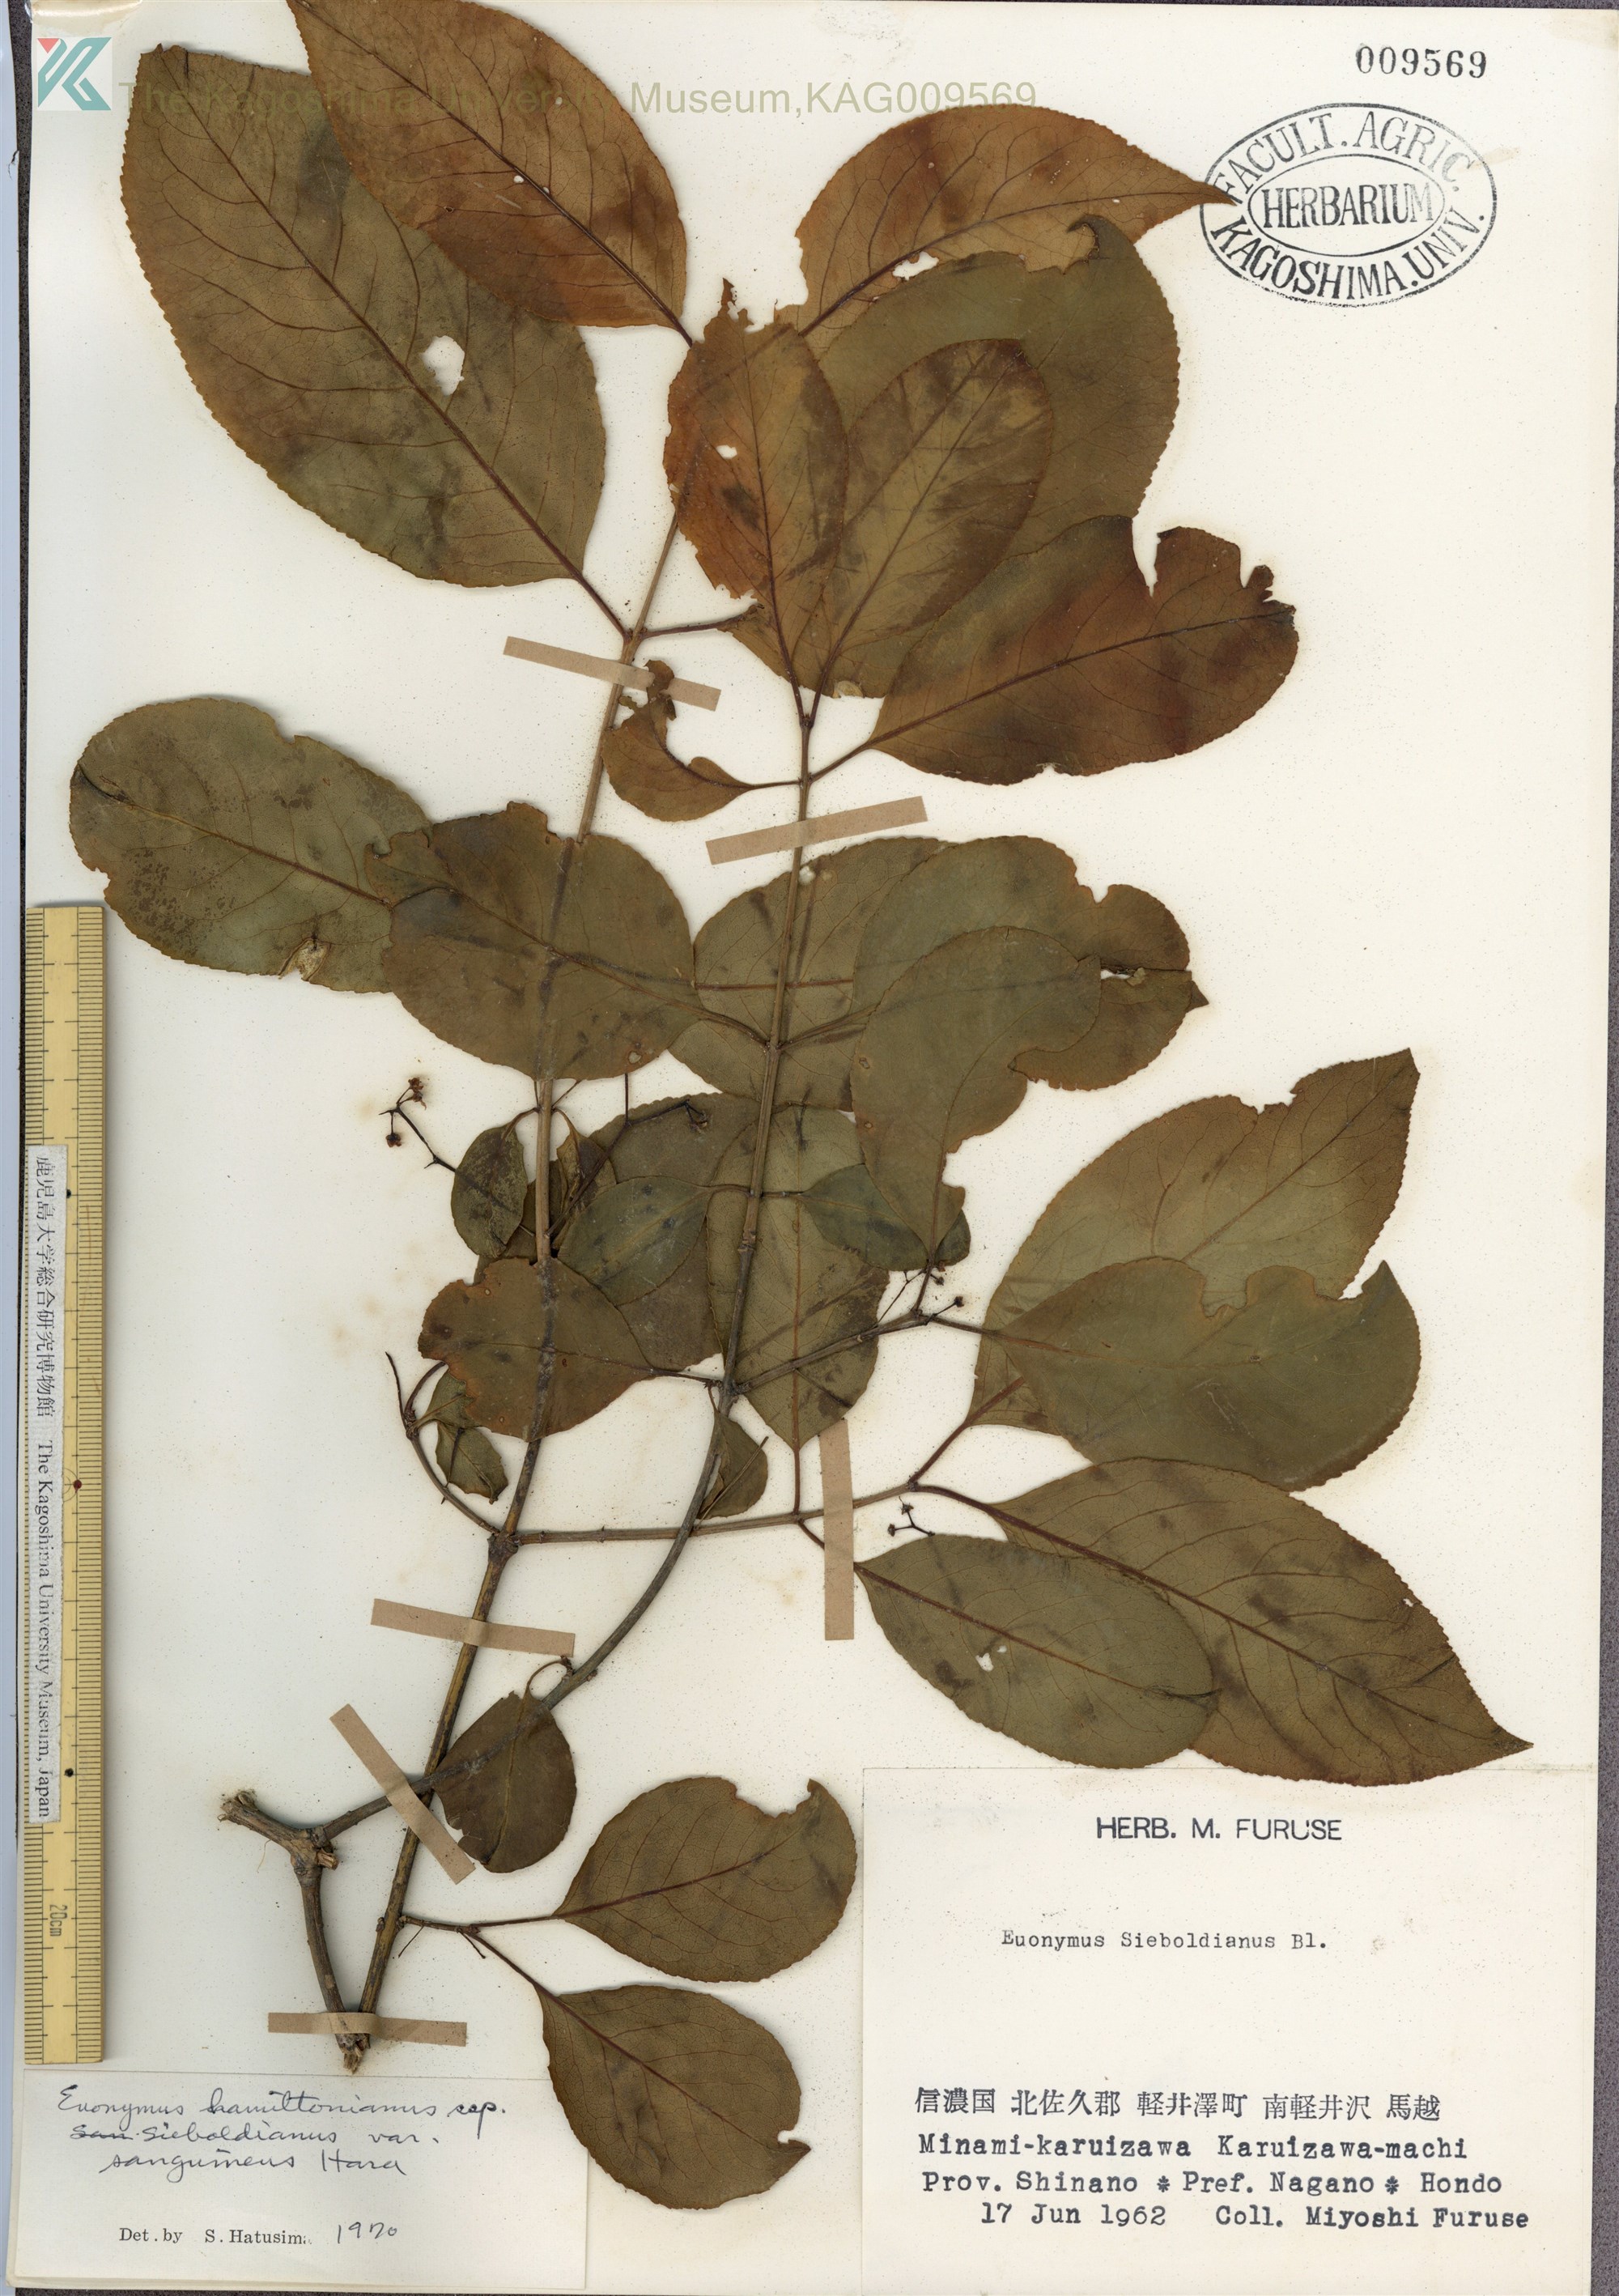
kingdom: Plantae
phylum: Tracheophyta
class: Magnoliopsida
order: Celastrales
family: Celastraceae
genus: Euonymus
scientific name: Euonymus hamiltonianus
